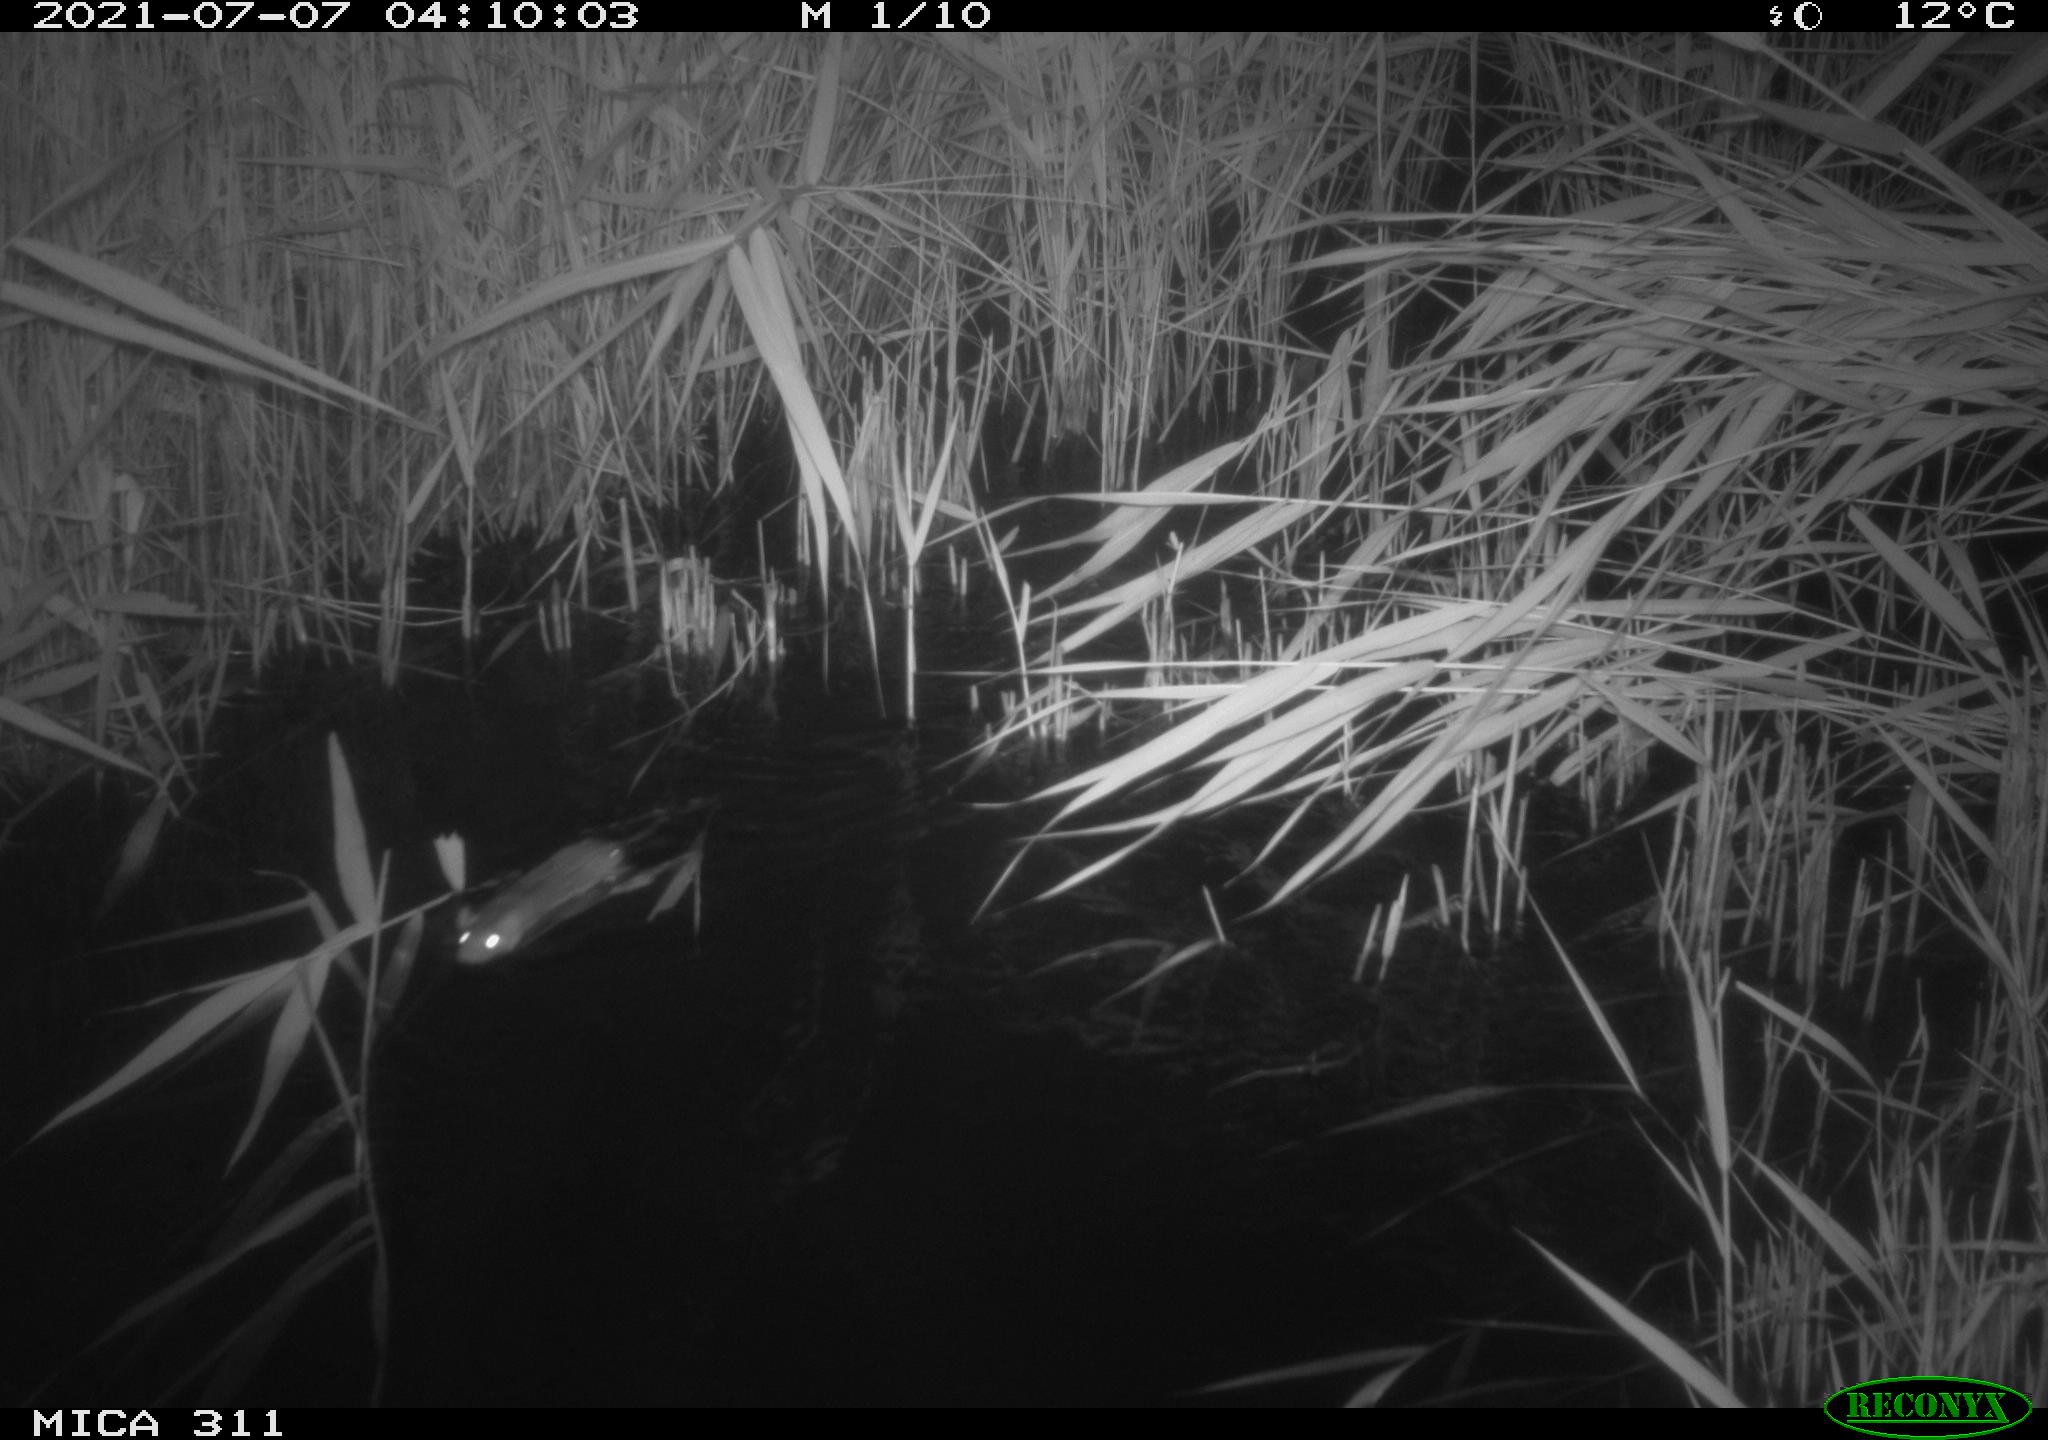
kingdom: Animalia
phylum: Chordata
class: Mammalia
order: Rodentia
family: Muridae
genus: Rattus
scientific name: Rattus norvegicus
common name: Brown rat
